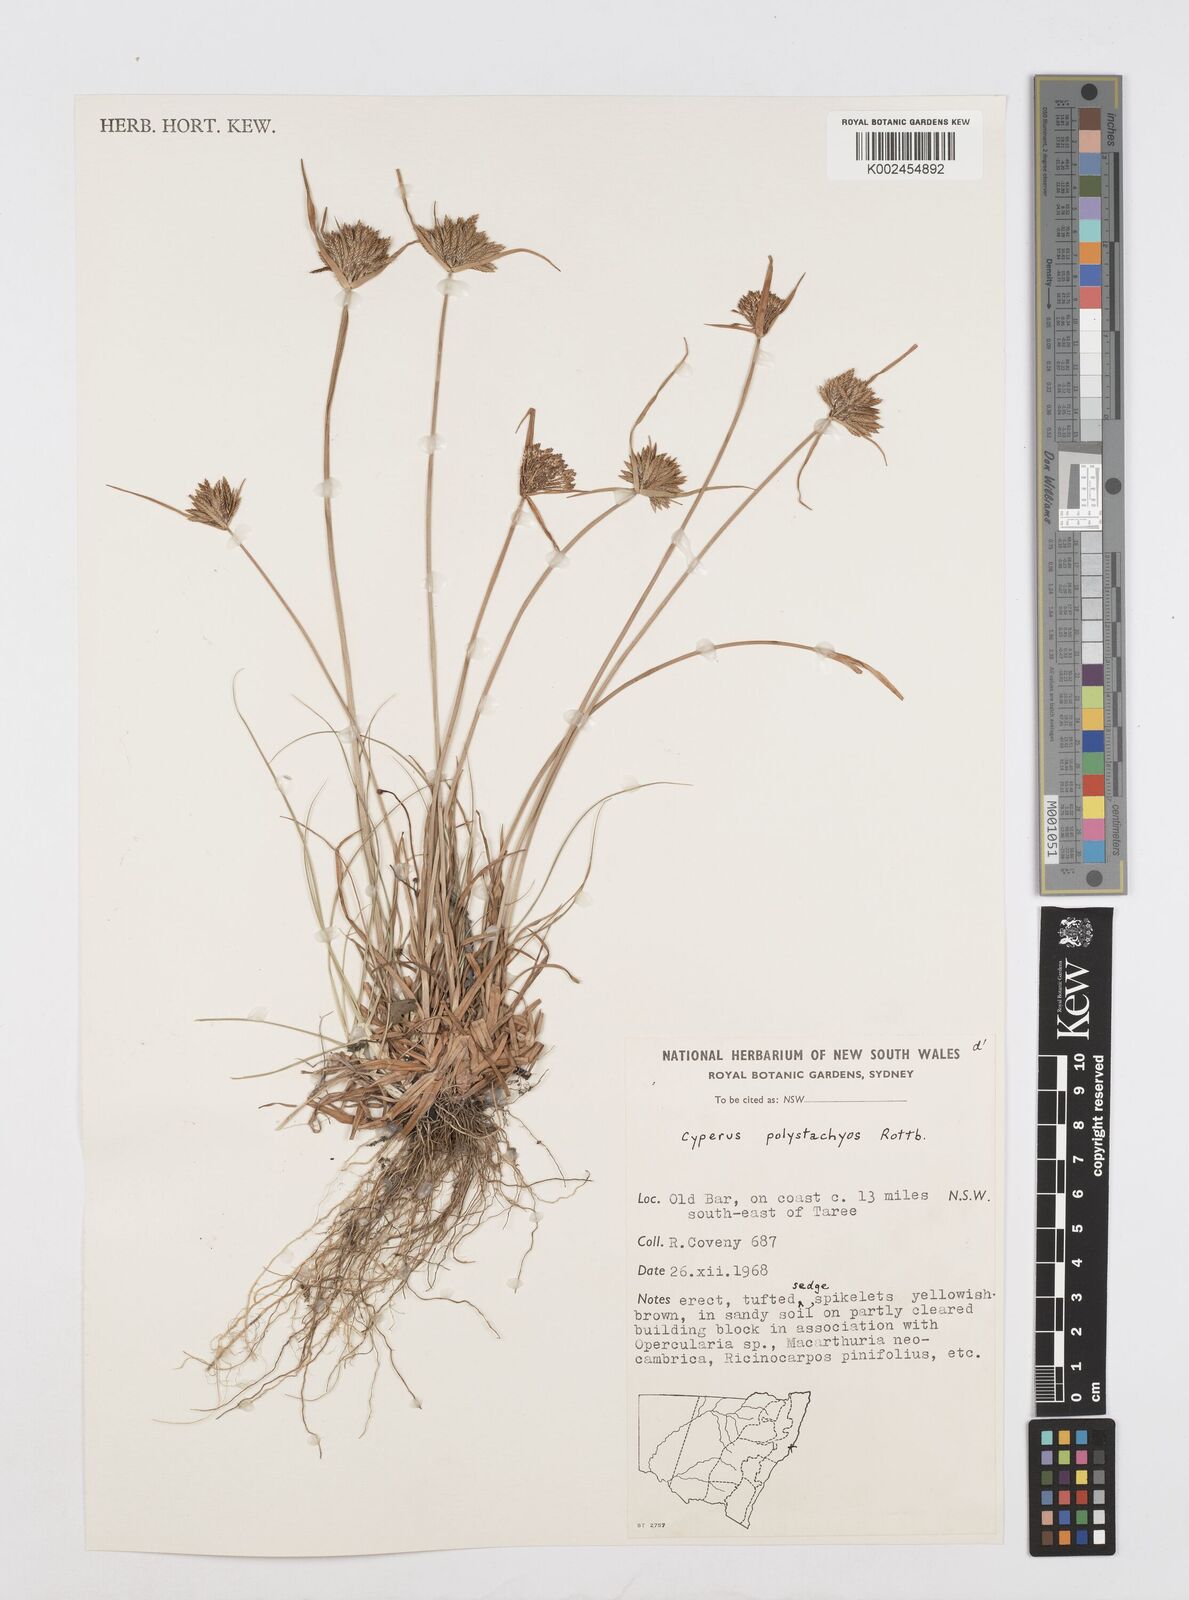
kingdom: Plantae
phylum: Tracheophyta
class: Liliopsida
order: Poales
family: Cyperaceae
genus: Cyperus
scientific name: Cyperus polystachyos
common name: Bunchy flat sedge
